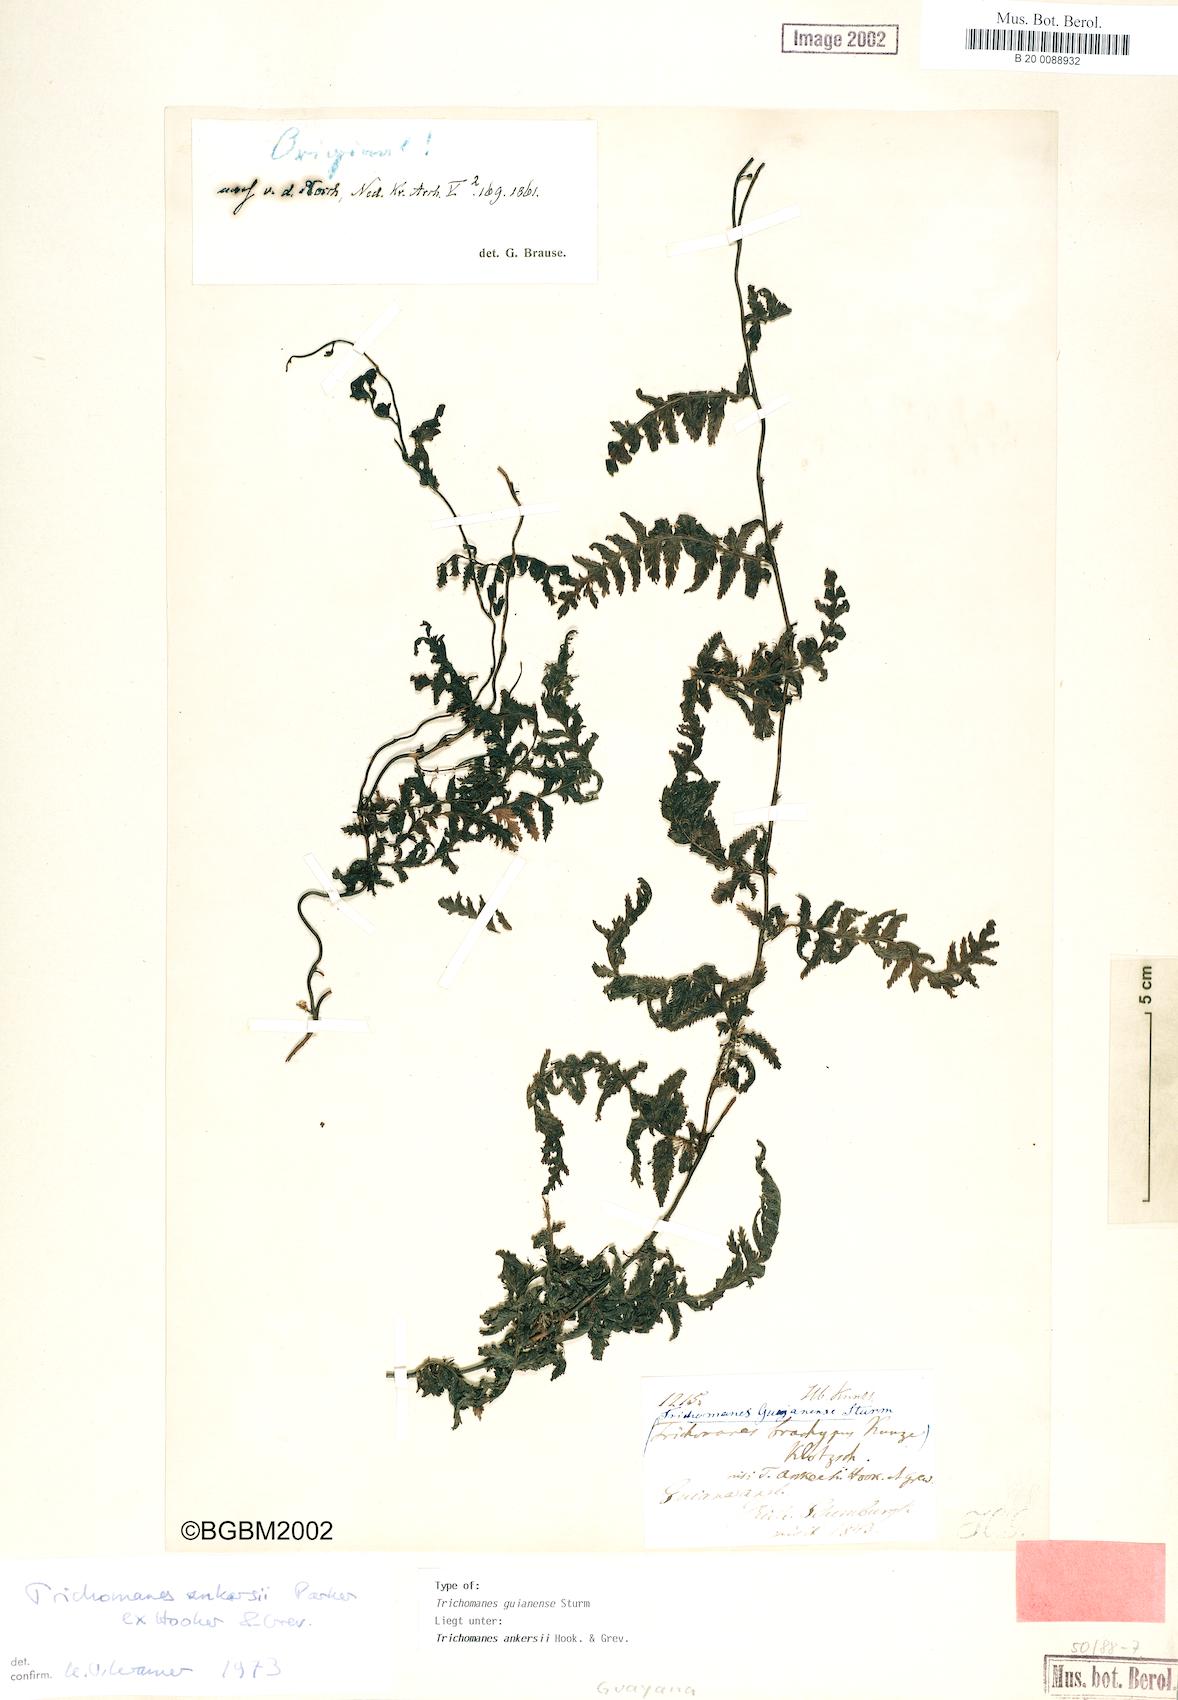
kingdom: Plantae
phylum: Tracheophyta
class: Polypodiopsida
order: Hymenophyllales
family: Hymenophyllaceae
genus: Trichomanes
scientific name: Trichomanes ankersii
